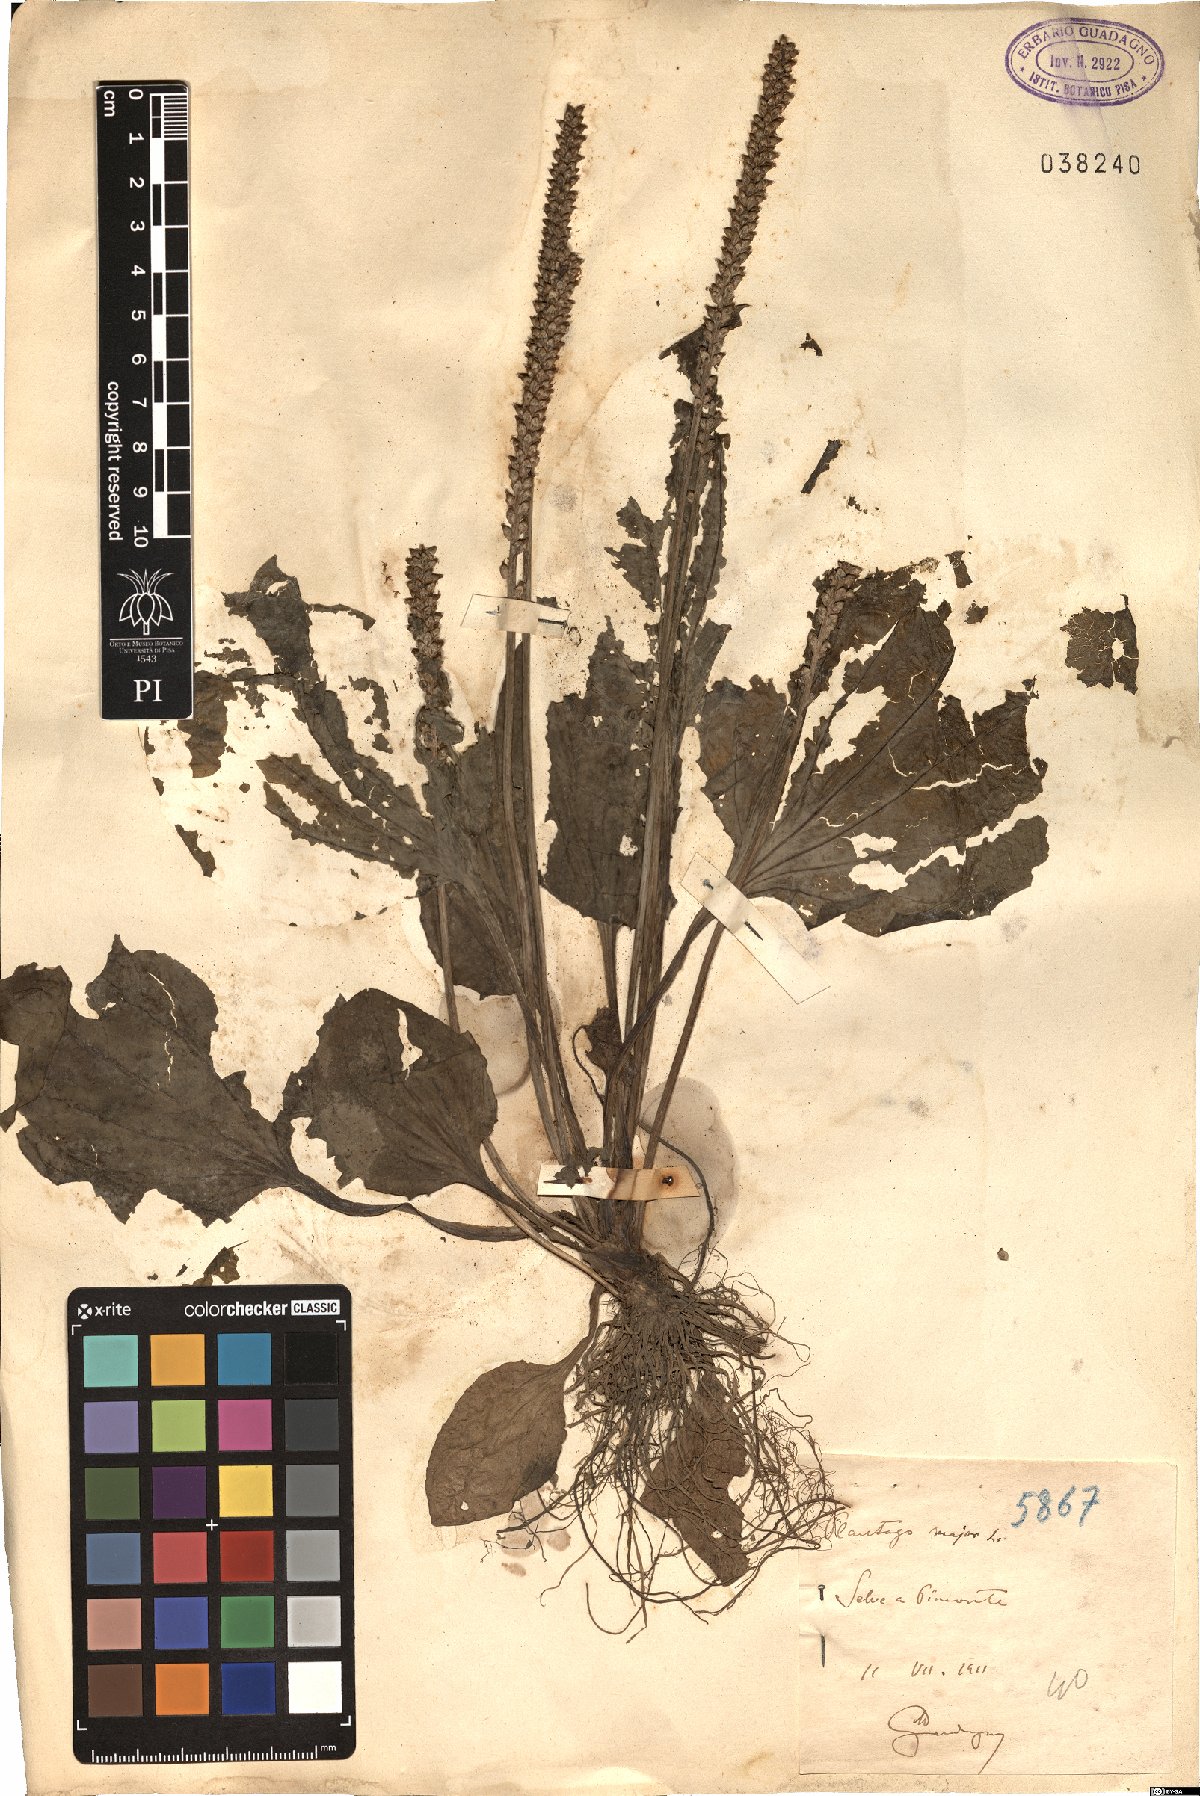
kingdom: Plantae
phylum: Tracheophyta
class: Magnoliopsida
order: Lamiales
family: Plantaginaceae
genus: Plantago
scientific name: Plantago major
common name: Common plantain
